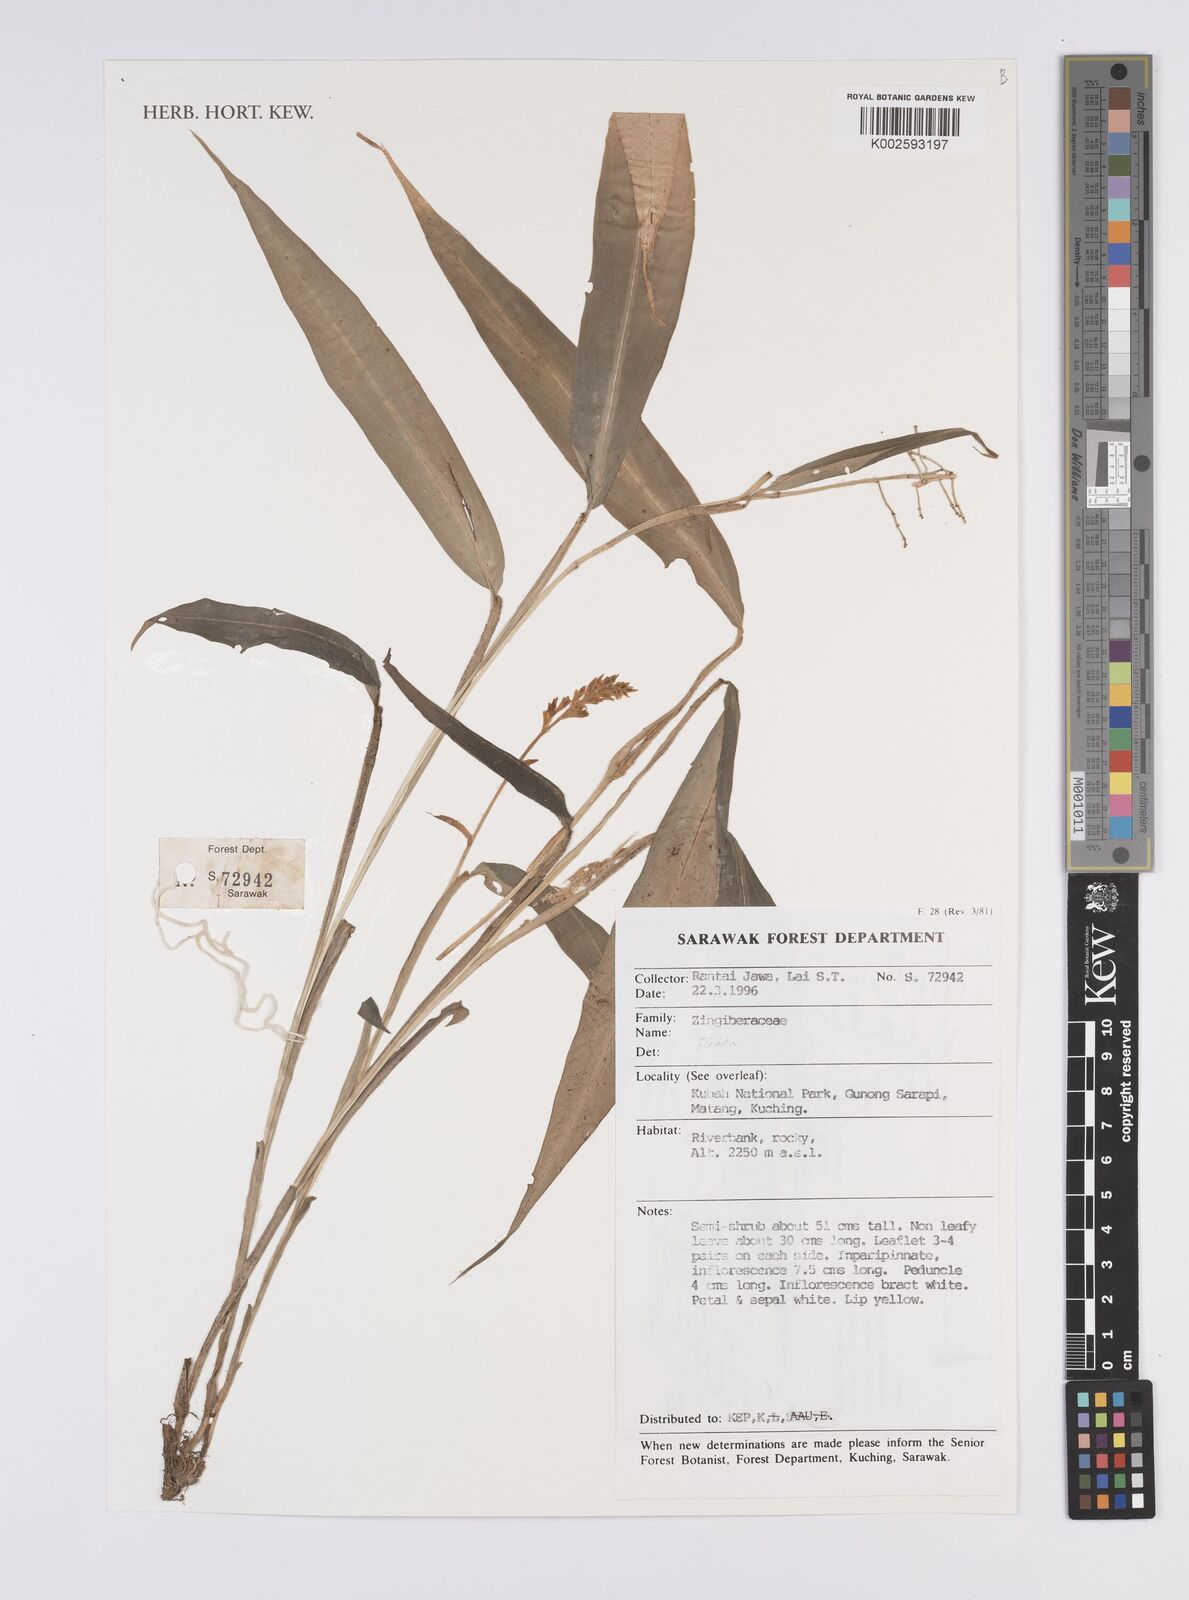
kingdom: Plantae
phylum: Tracheophyta
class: Liliopsida
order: Zingiberales
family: Zingiberaceae
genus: Globba
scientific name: Globba
